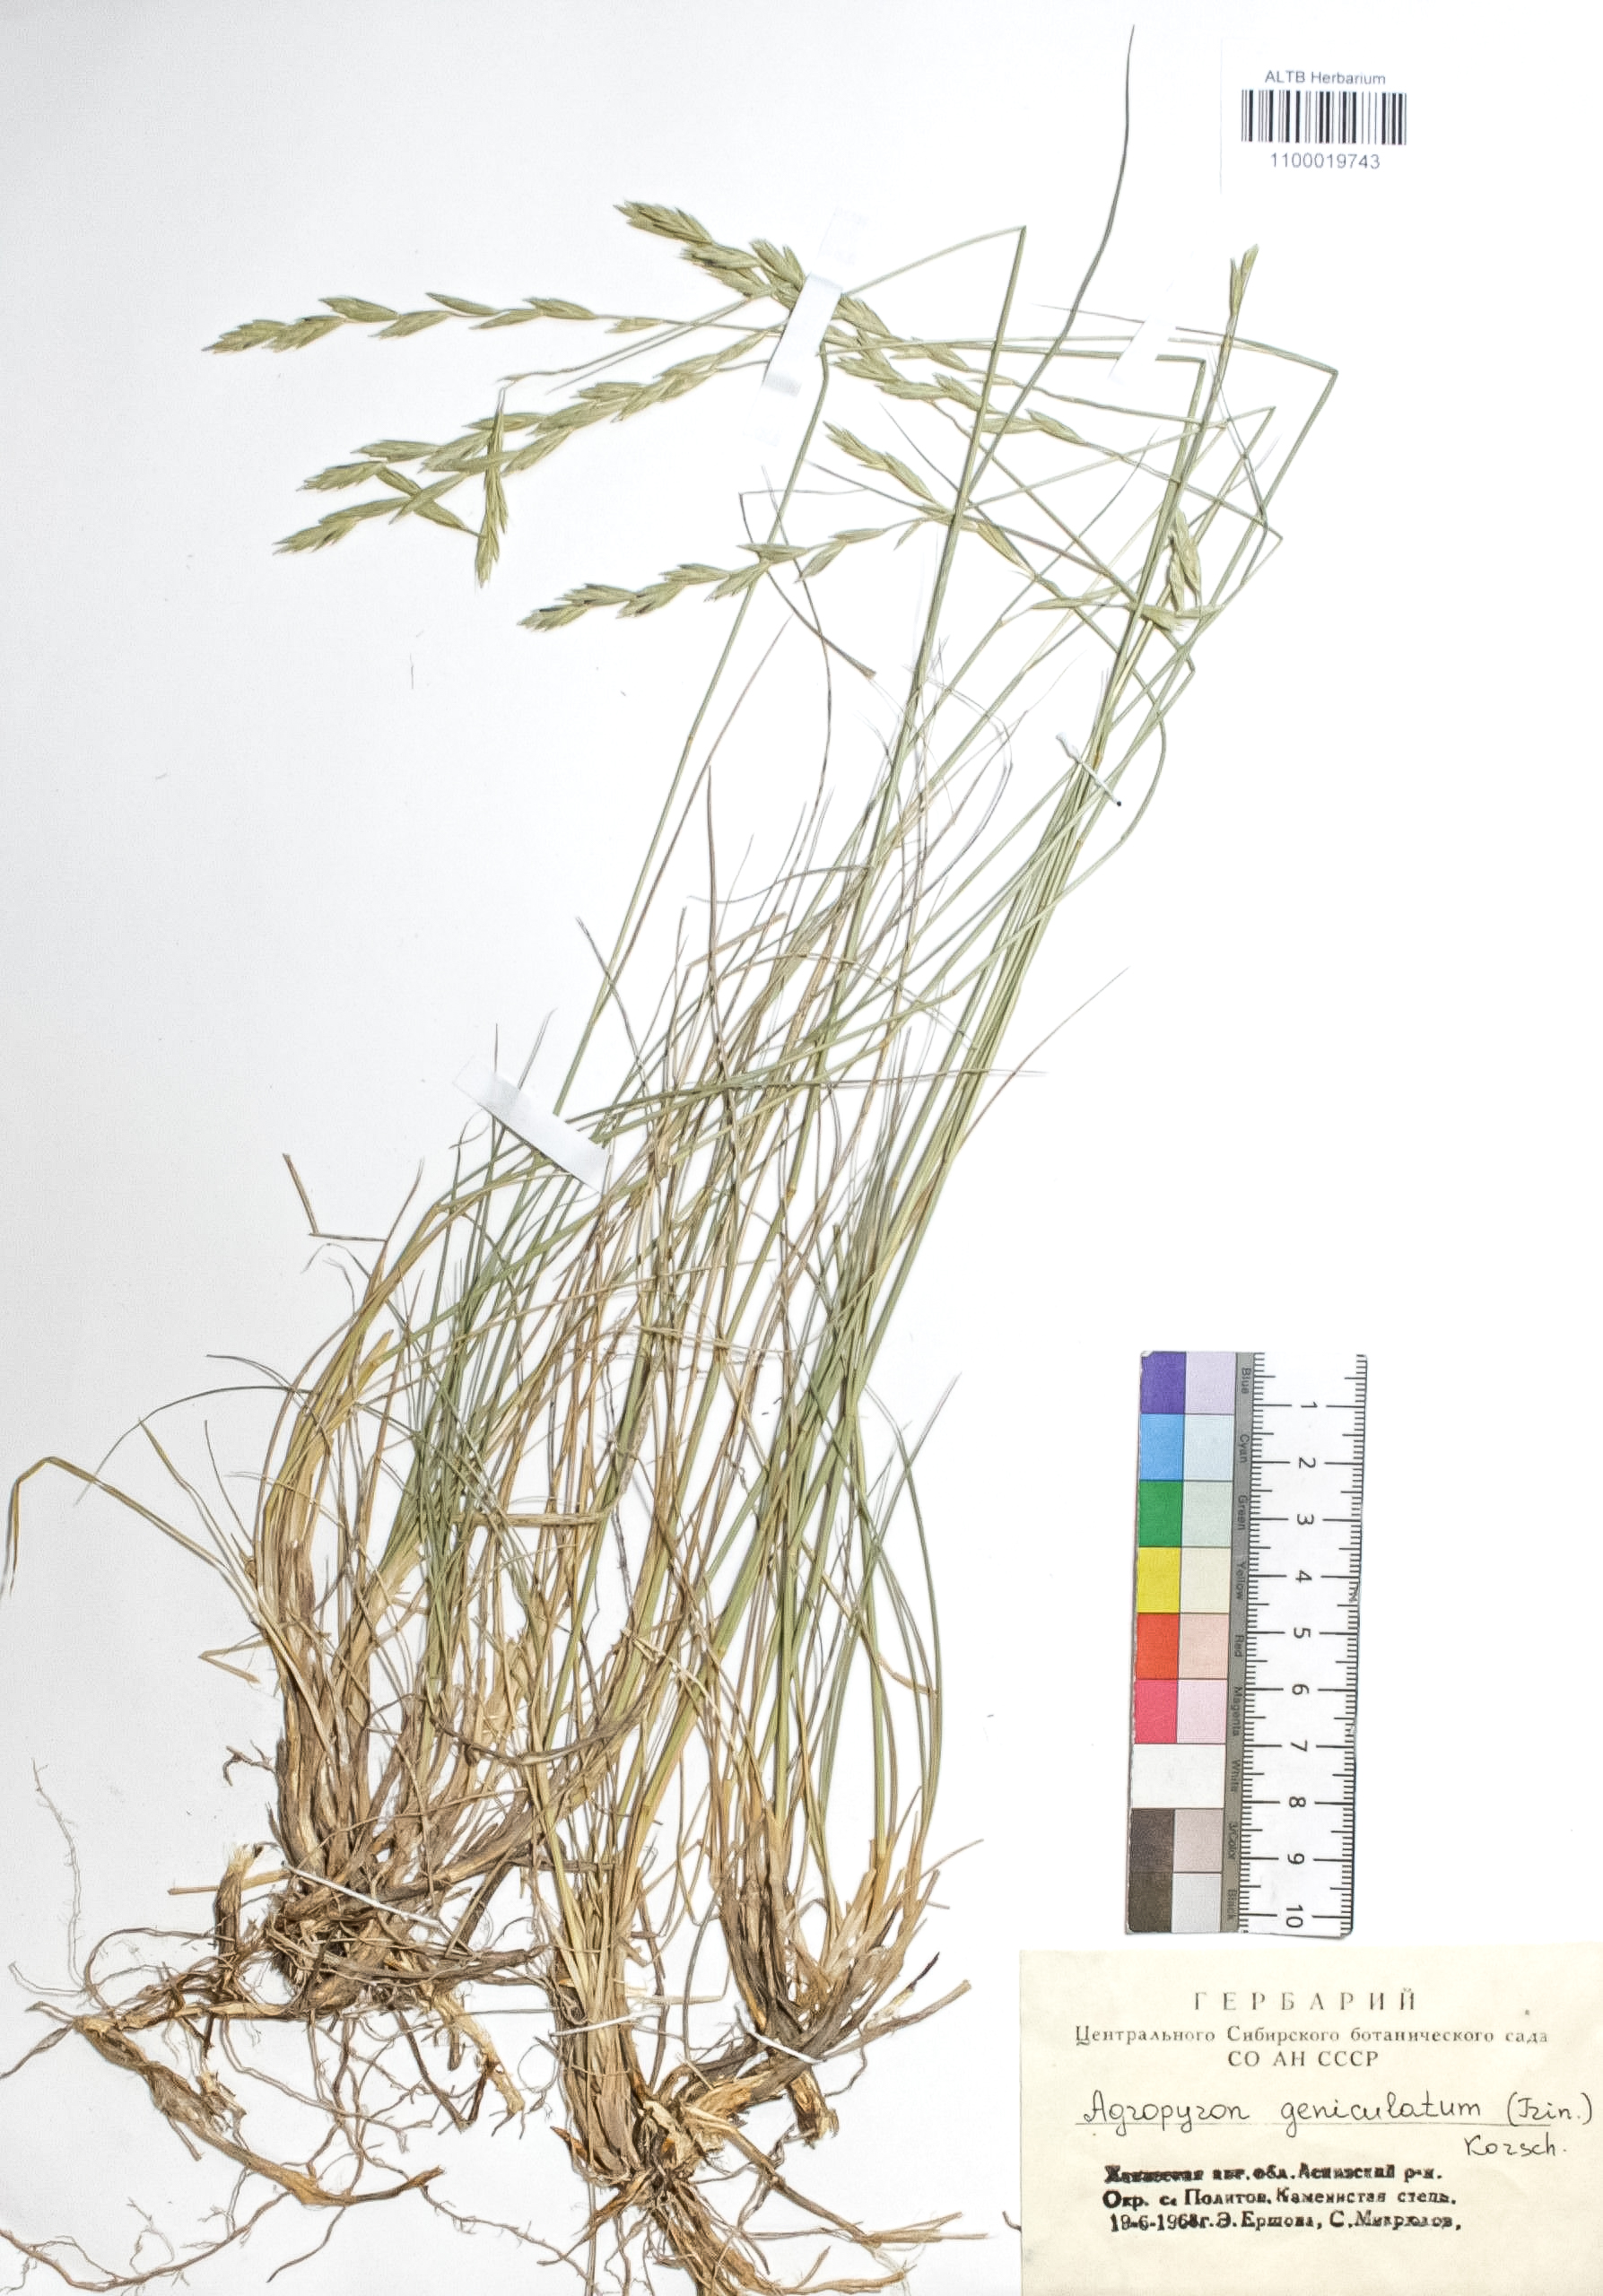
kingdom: Plantae
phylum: Tracheophyta
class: Liliopsida
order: Poales
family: Poaceae
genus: Pseudoroegneria
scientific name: Pseudoroegneria geniculata
